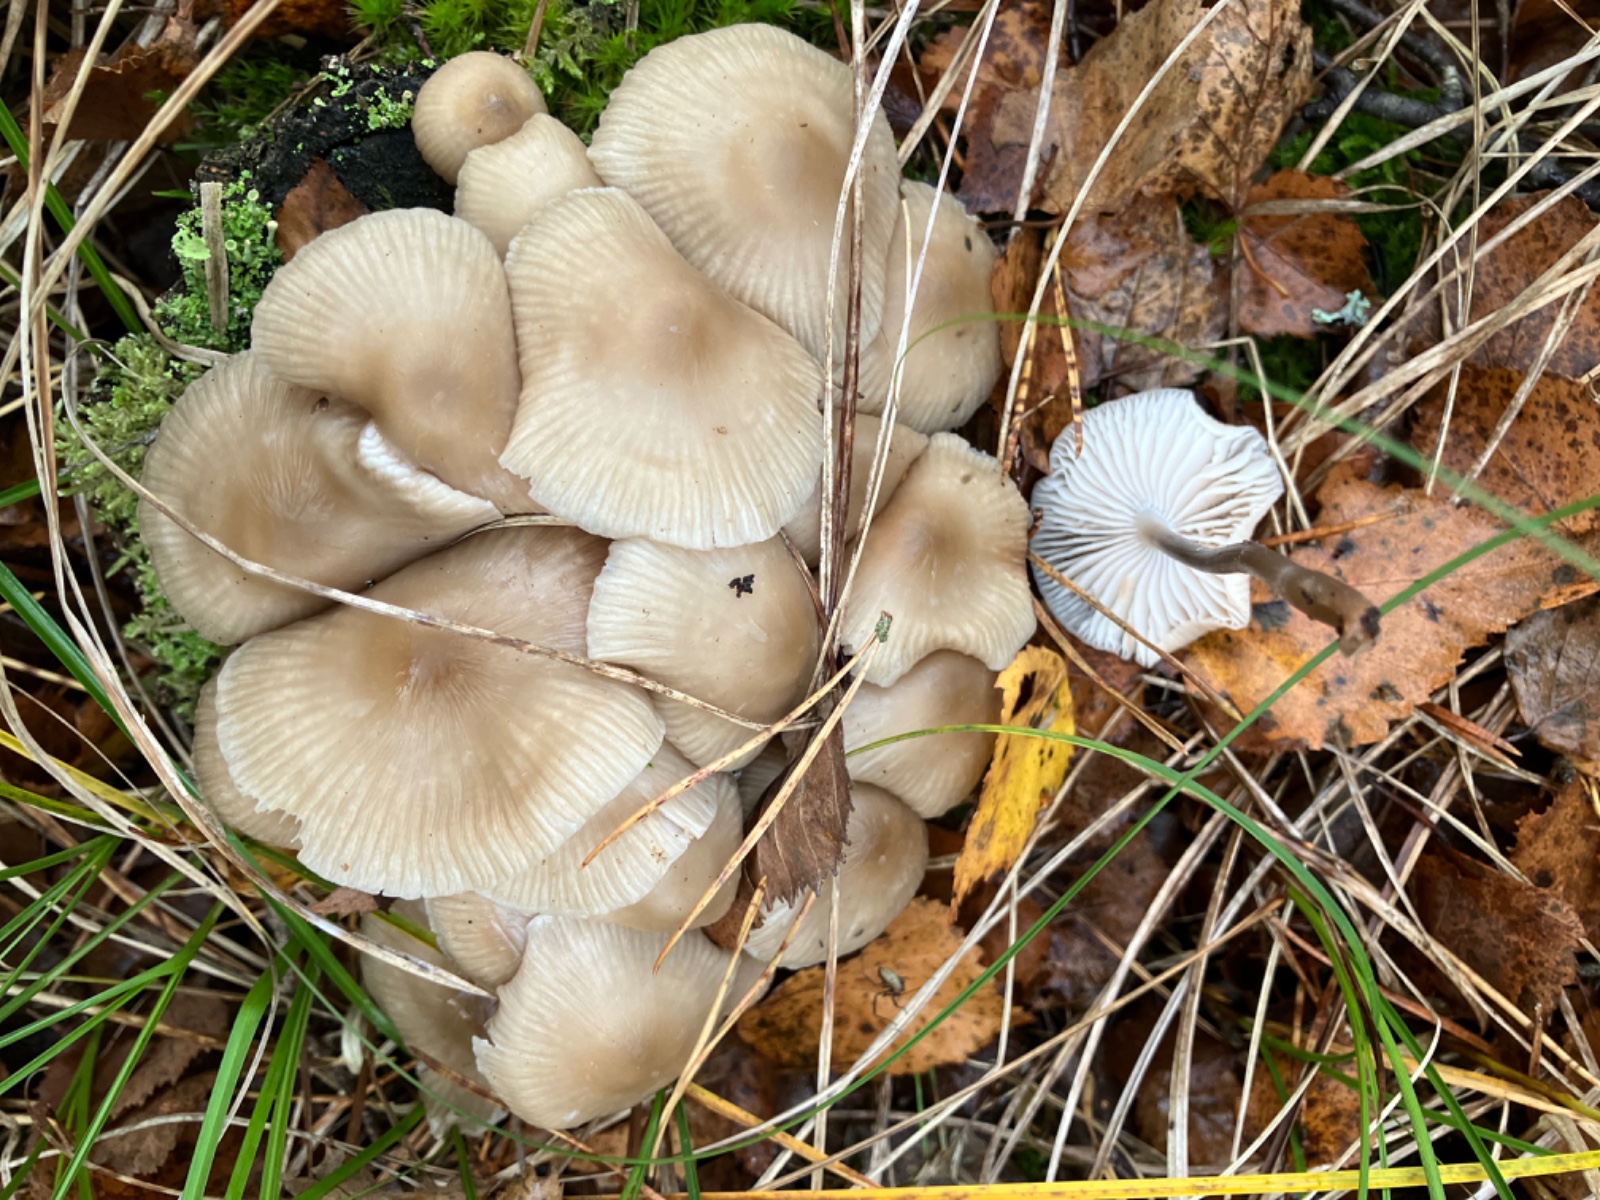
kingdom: Fungi
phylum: Basidiomycota
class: Agaricomycetes
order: Agaricales
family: Mycenaceae
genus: Mycena
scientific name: Mycena galericulata
